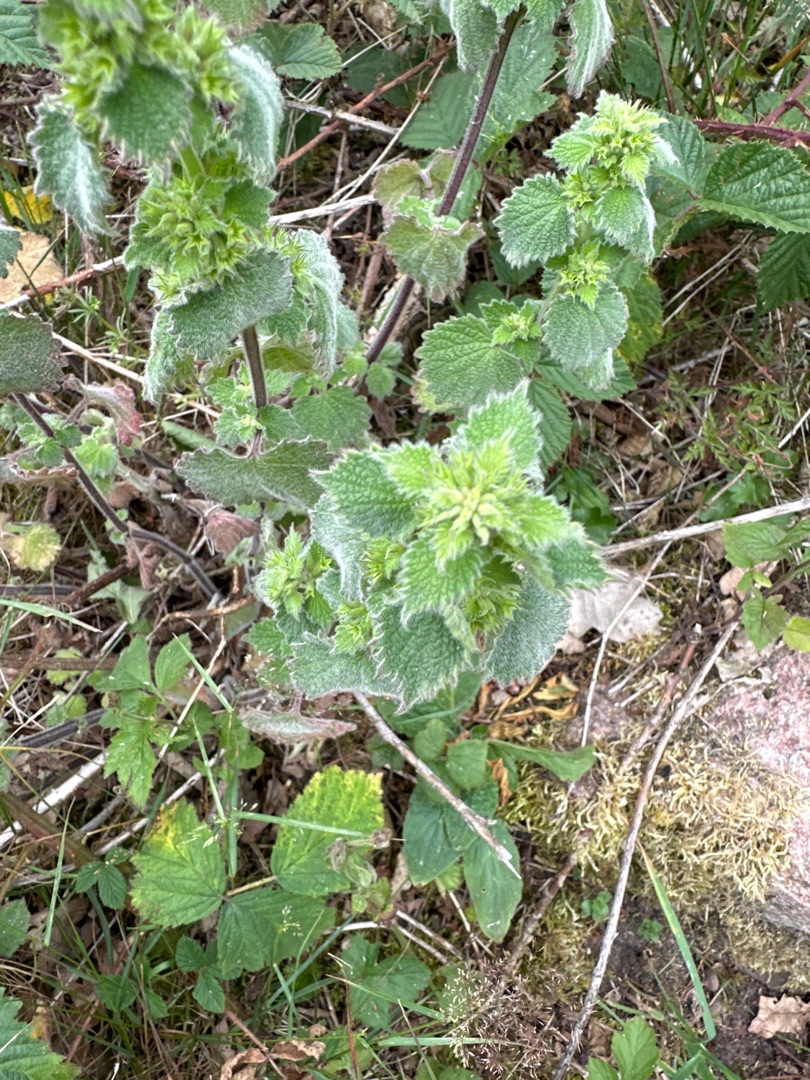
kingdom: Plantae
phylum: Tracheophyta
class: Magnoliopsida
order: Lamiales
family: Lamiaceae
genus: Ballota
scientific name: Ballota nigra
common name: Tandbæger
